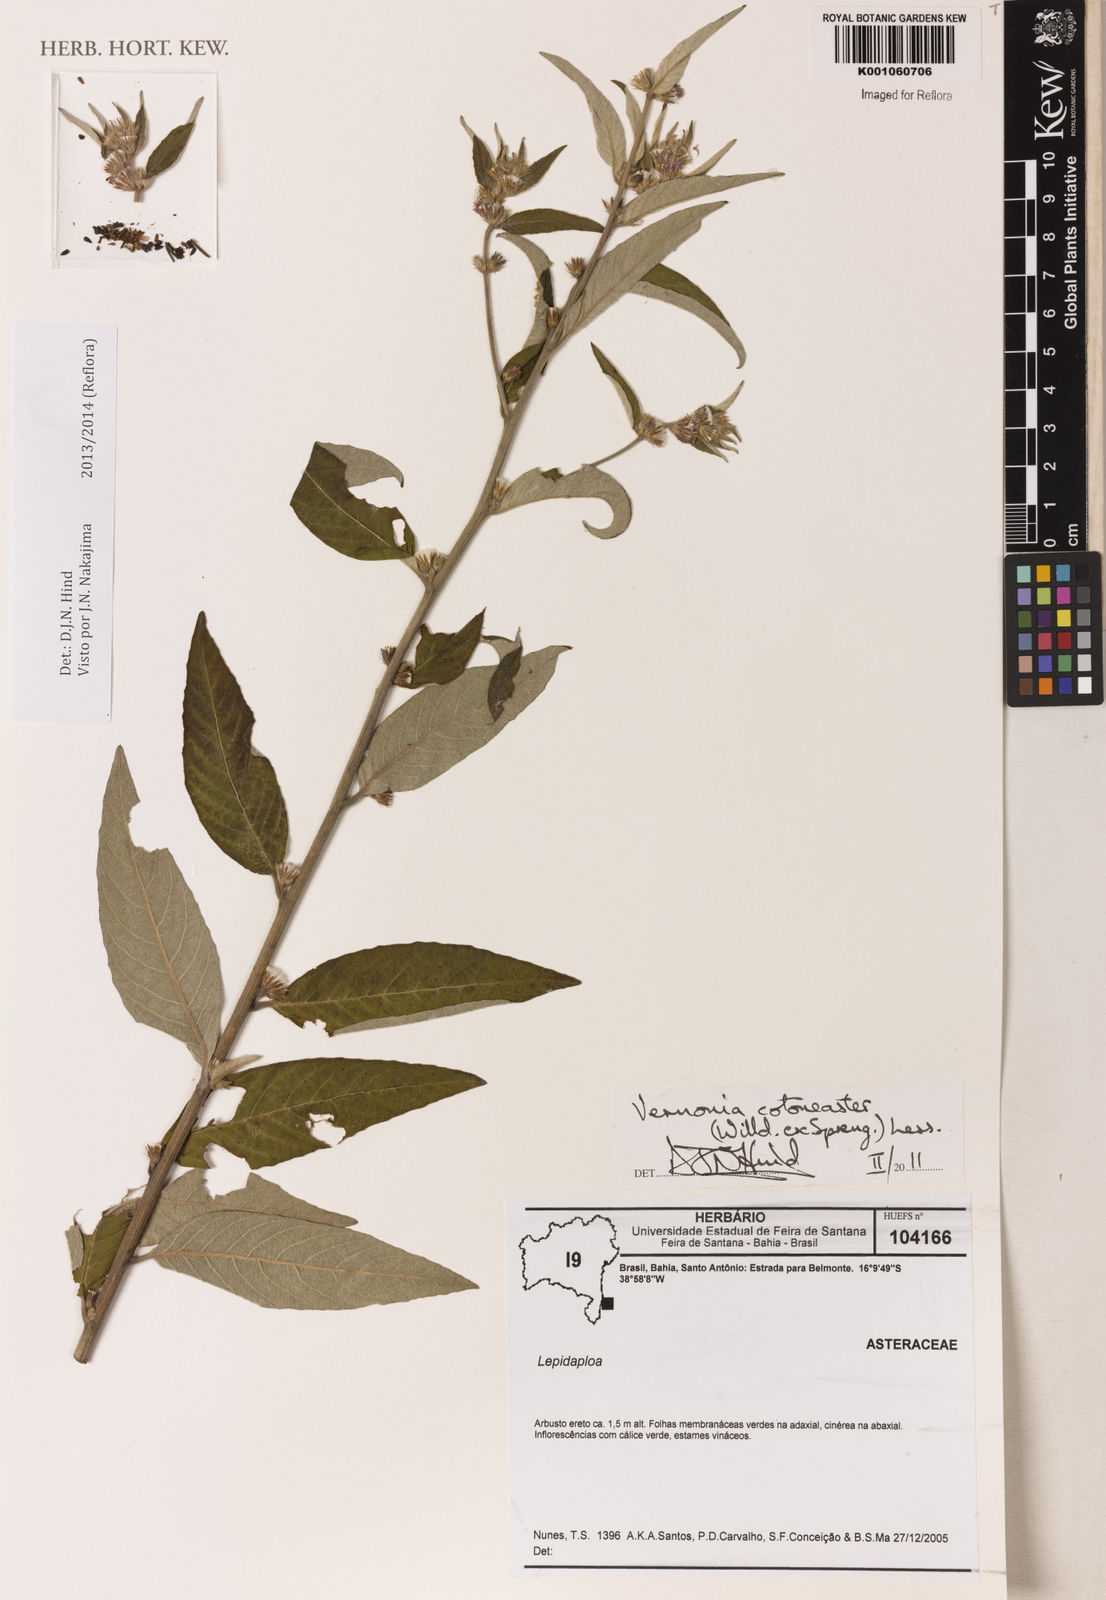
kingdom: Plantae
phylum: Tracheophyta
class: Magnoliopsida
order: Asterales
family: Asteraceae
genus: Lepidaploa
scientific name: Lepidaploa cotoneaster
